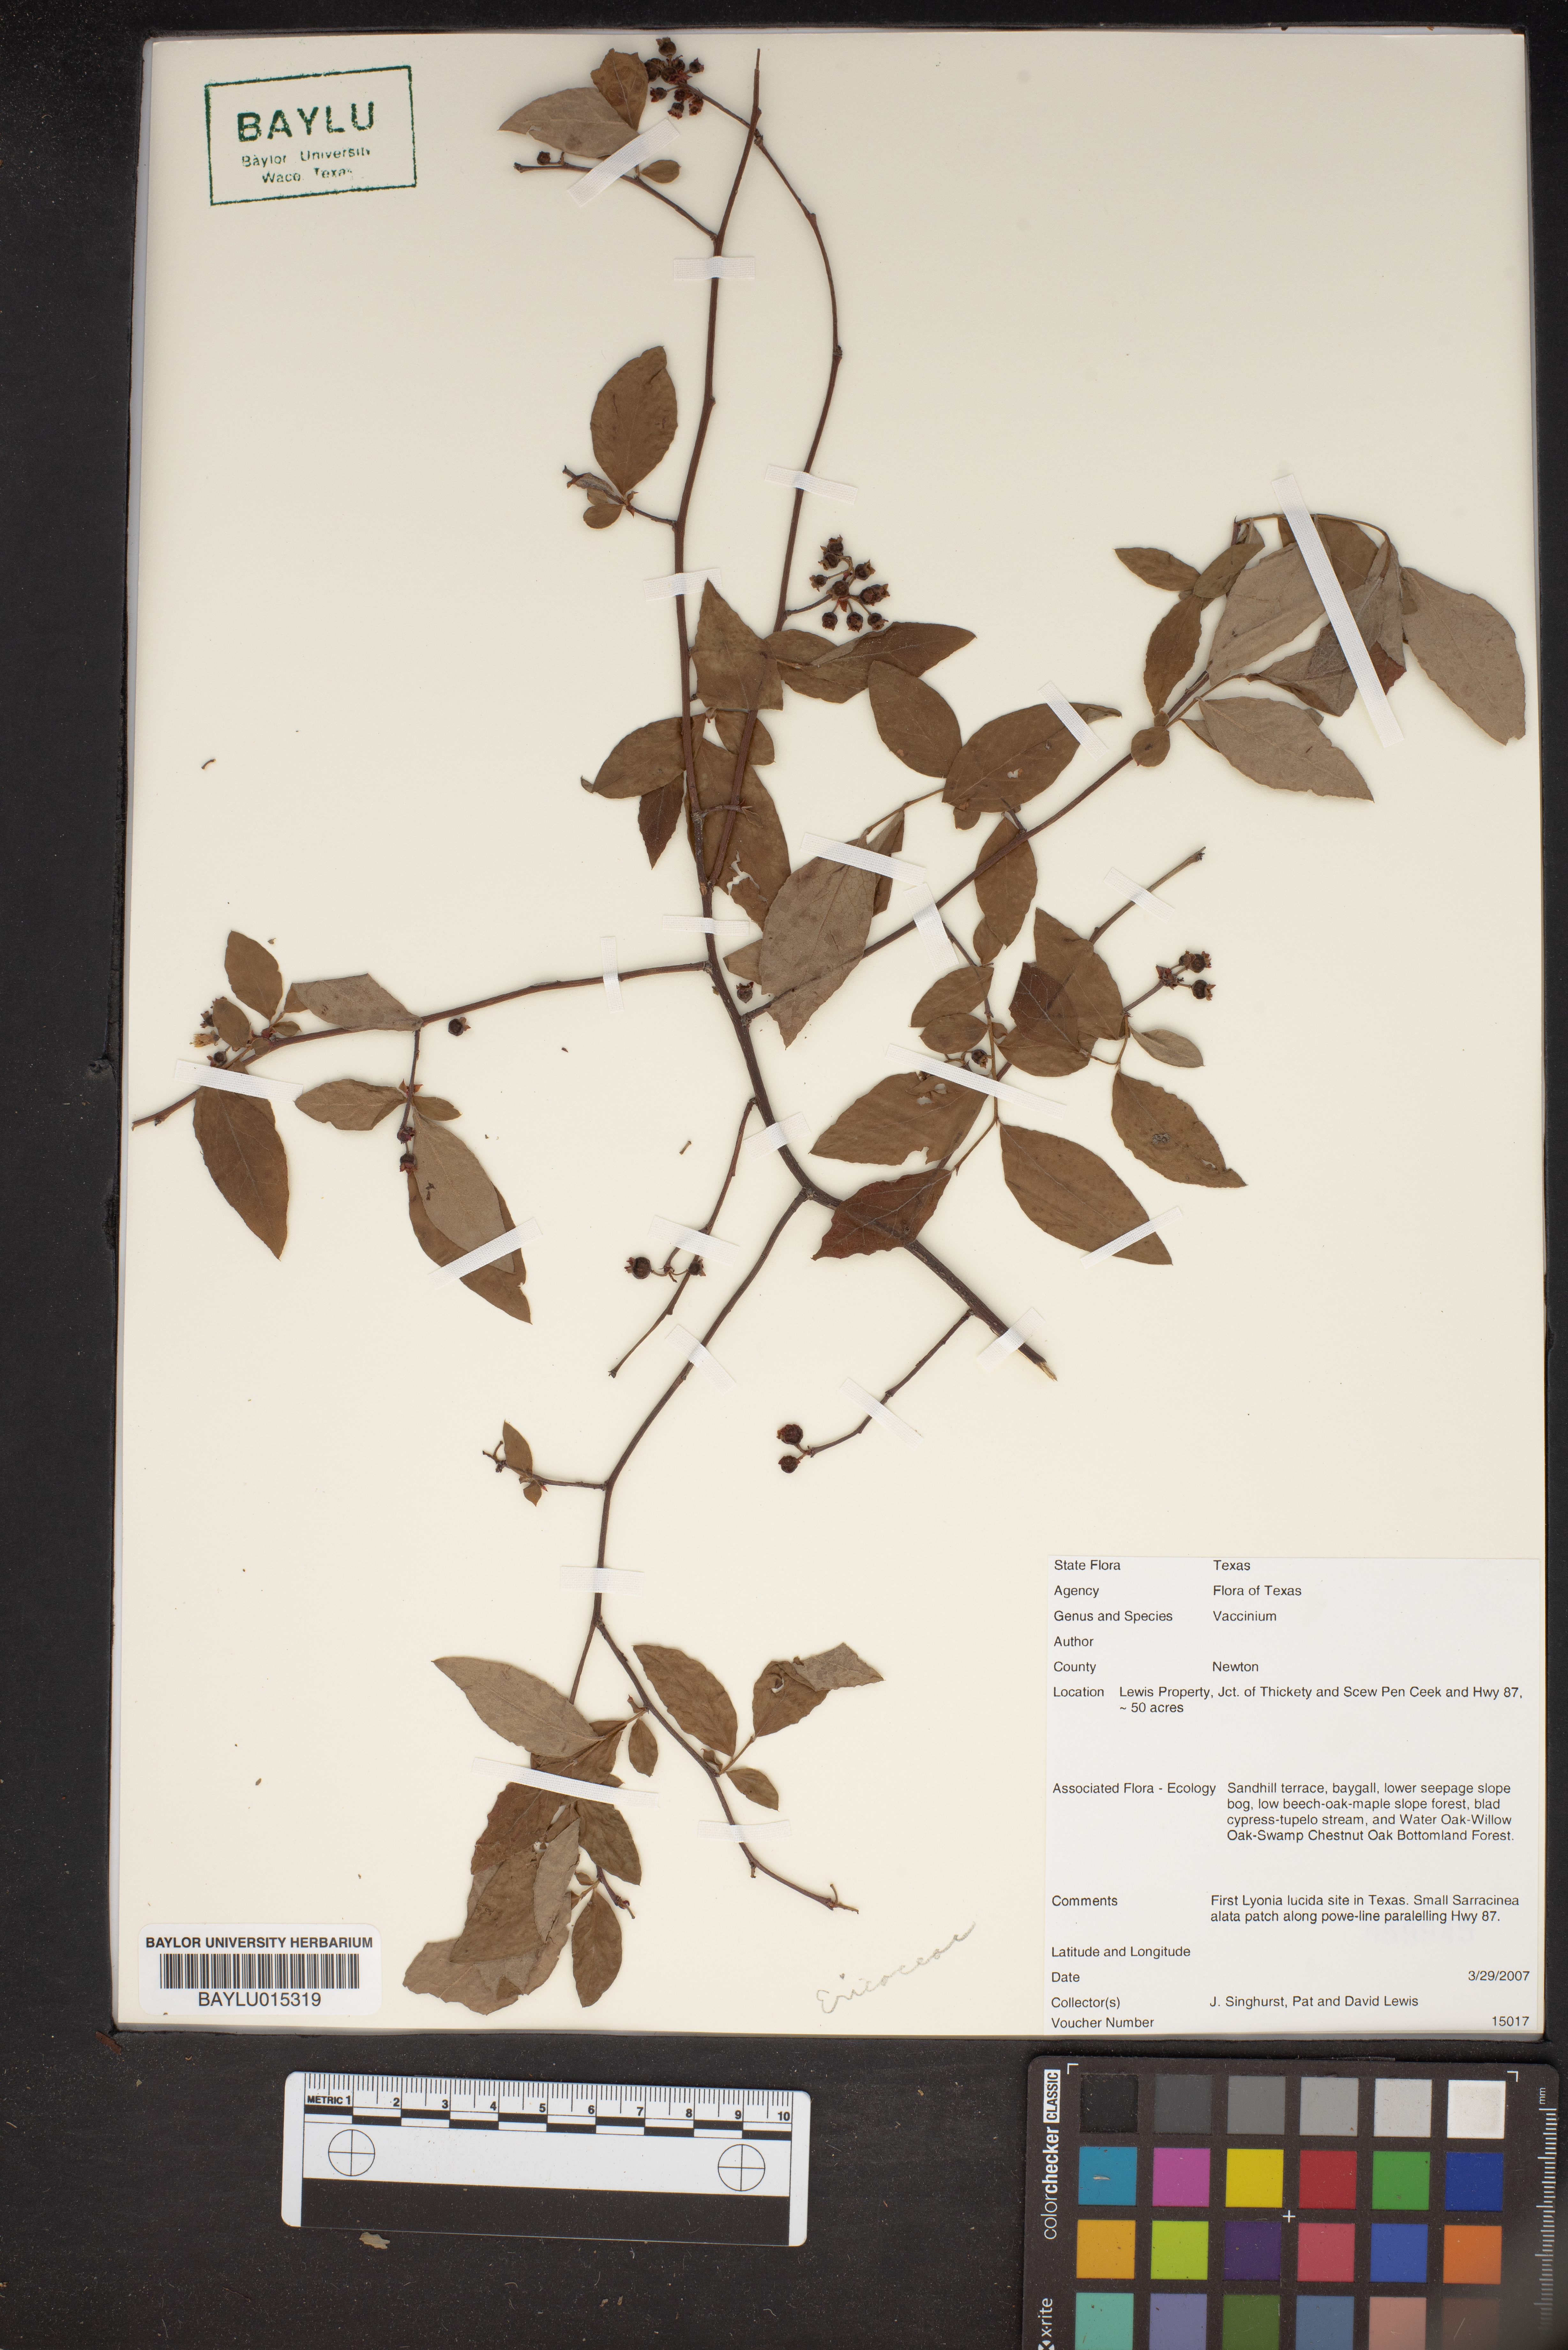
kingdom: Plantae
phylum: Tracheophyta
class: Magnoliopsida
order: Ericales
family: Ericaceae
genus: Vaccinium
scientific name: Vaccinium
